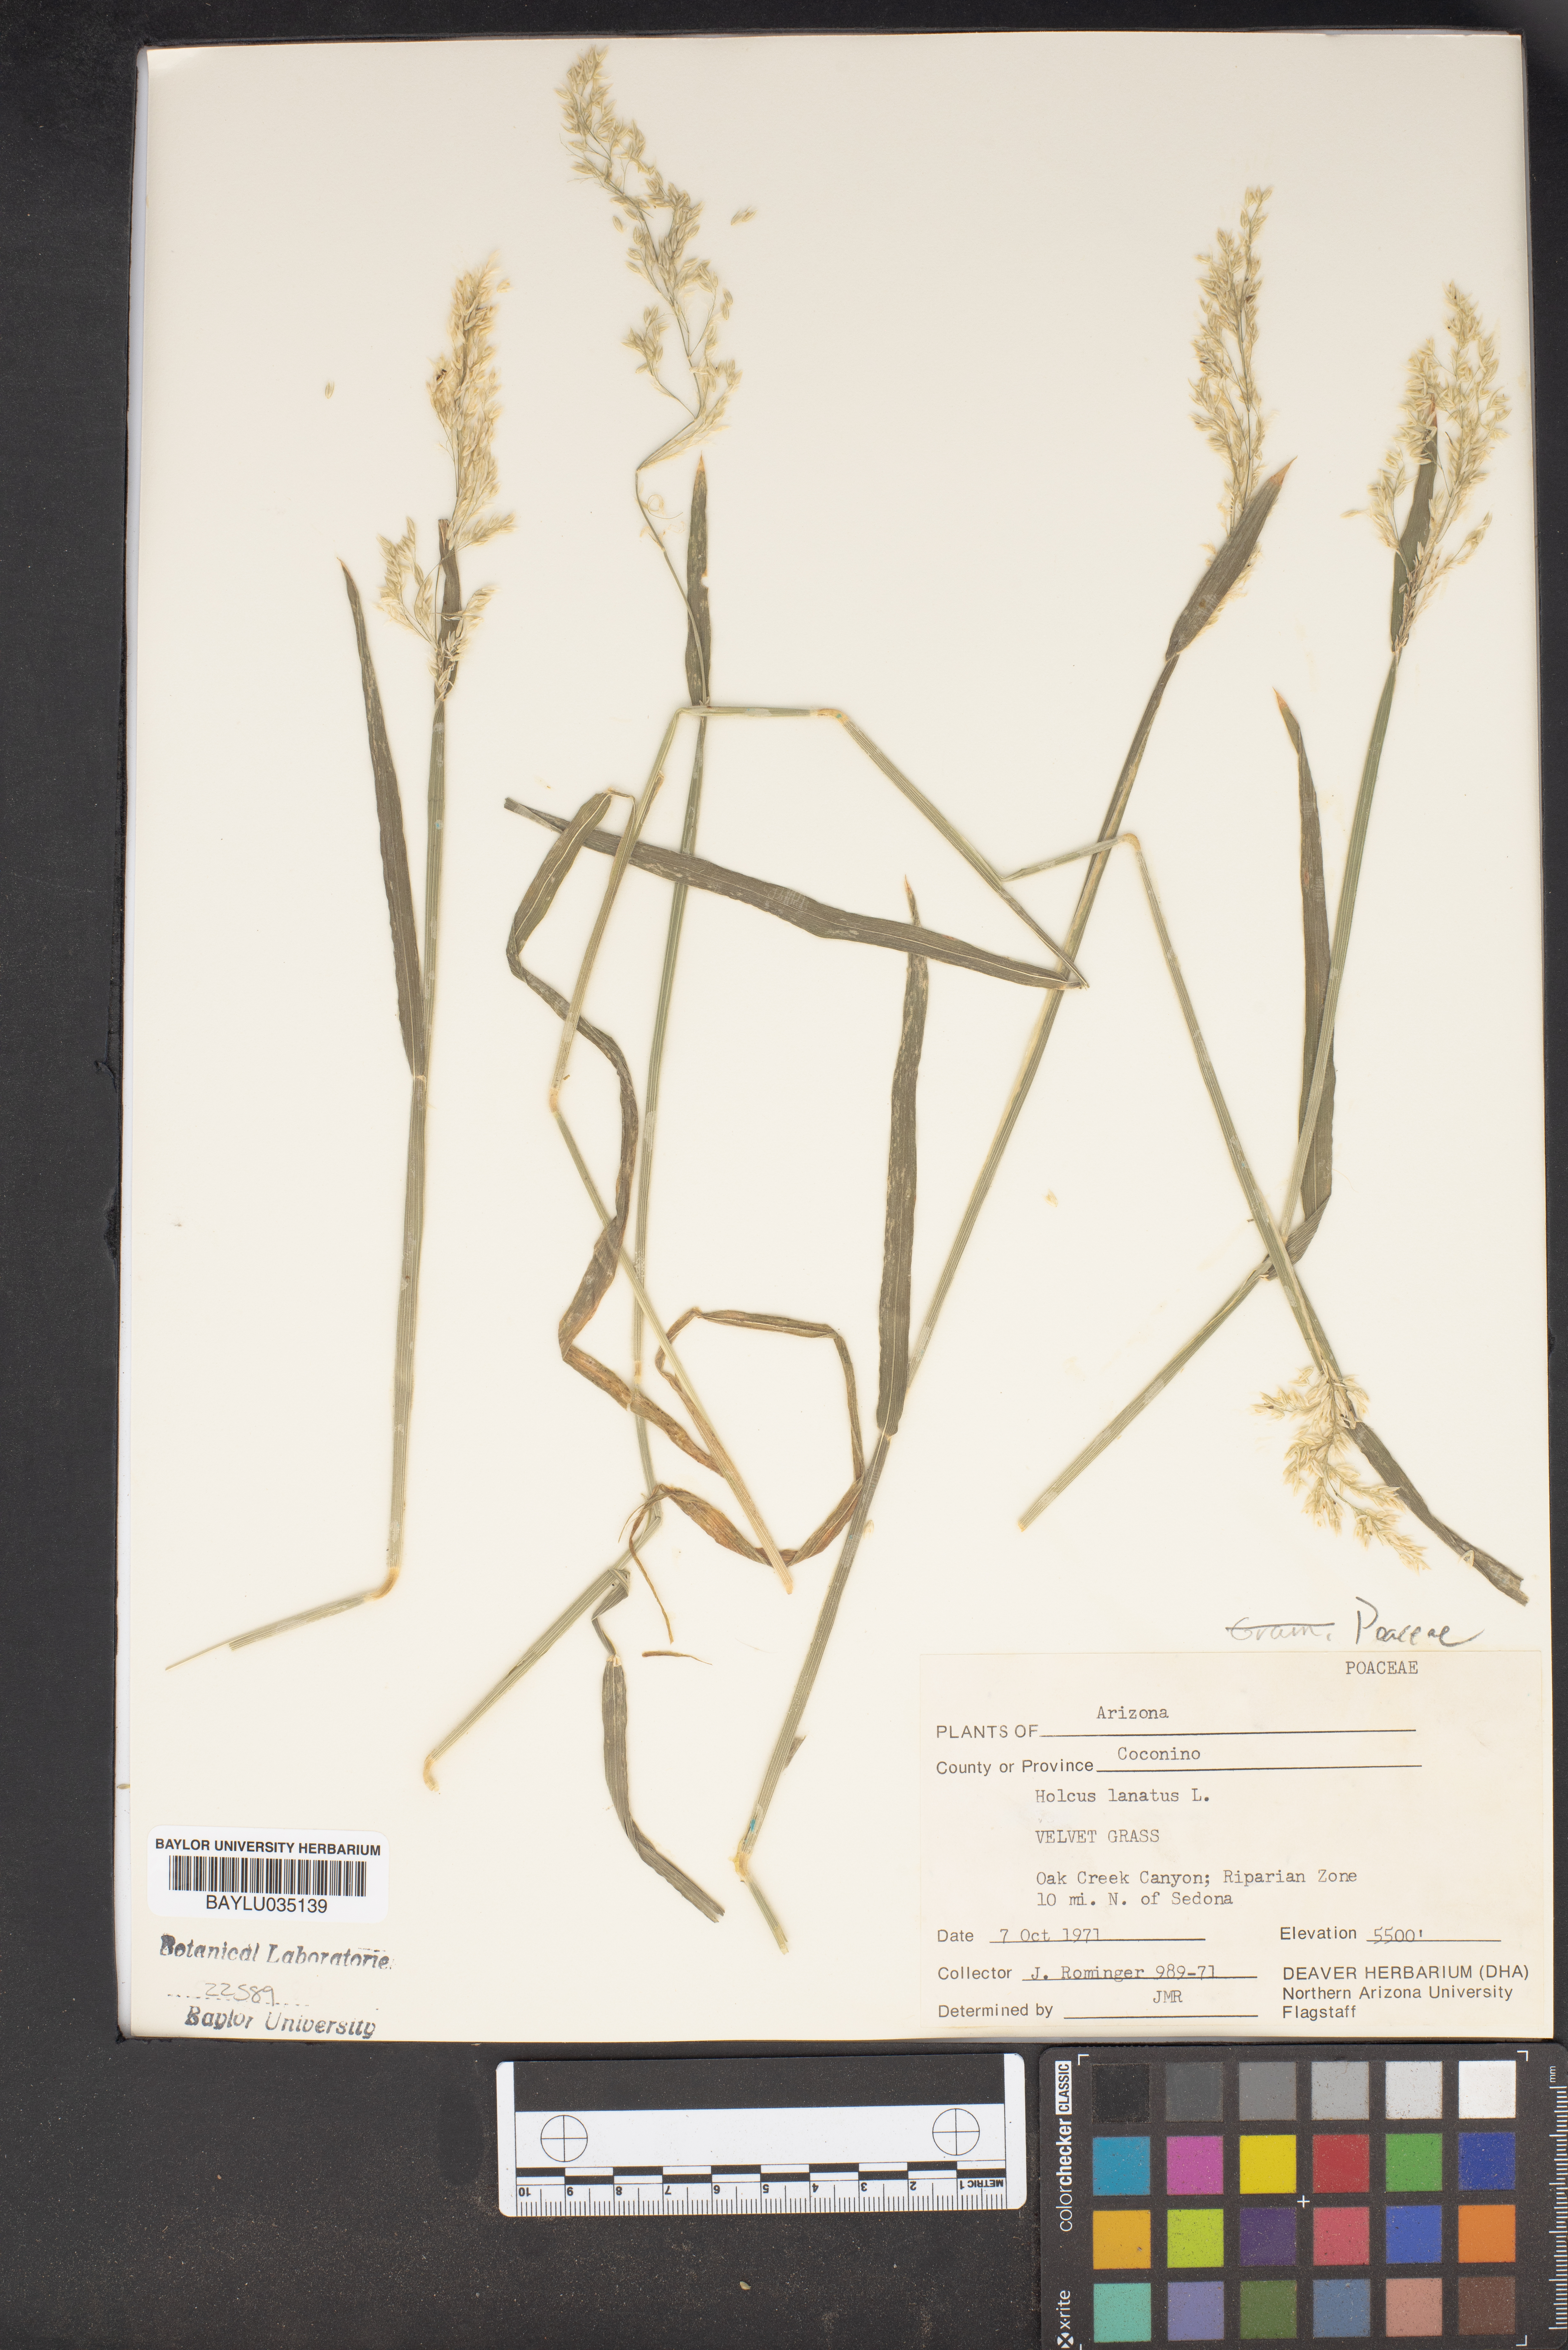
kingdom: Plantae
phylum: Tracheophyta
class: Liliopsida
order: Poales
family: Poaceae
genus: Holcus
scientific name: Holcus lanatus
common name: Yorkshire-fog
